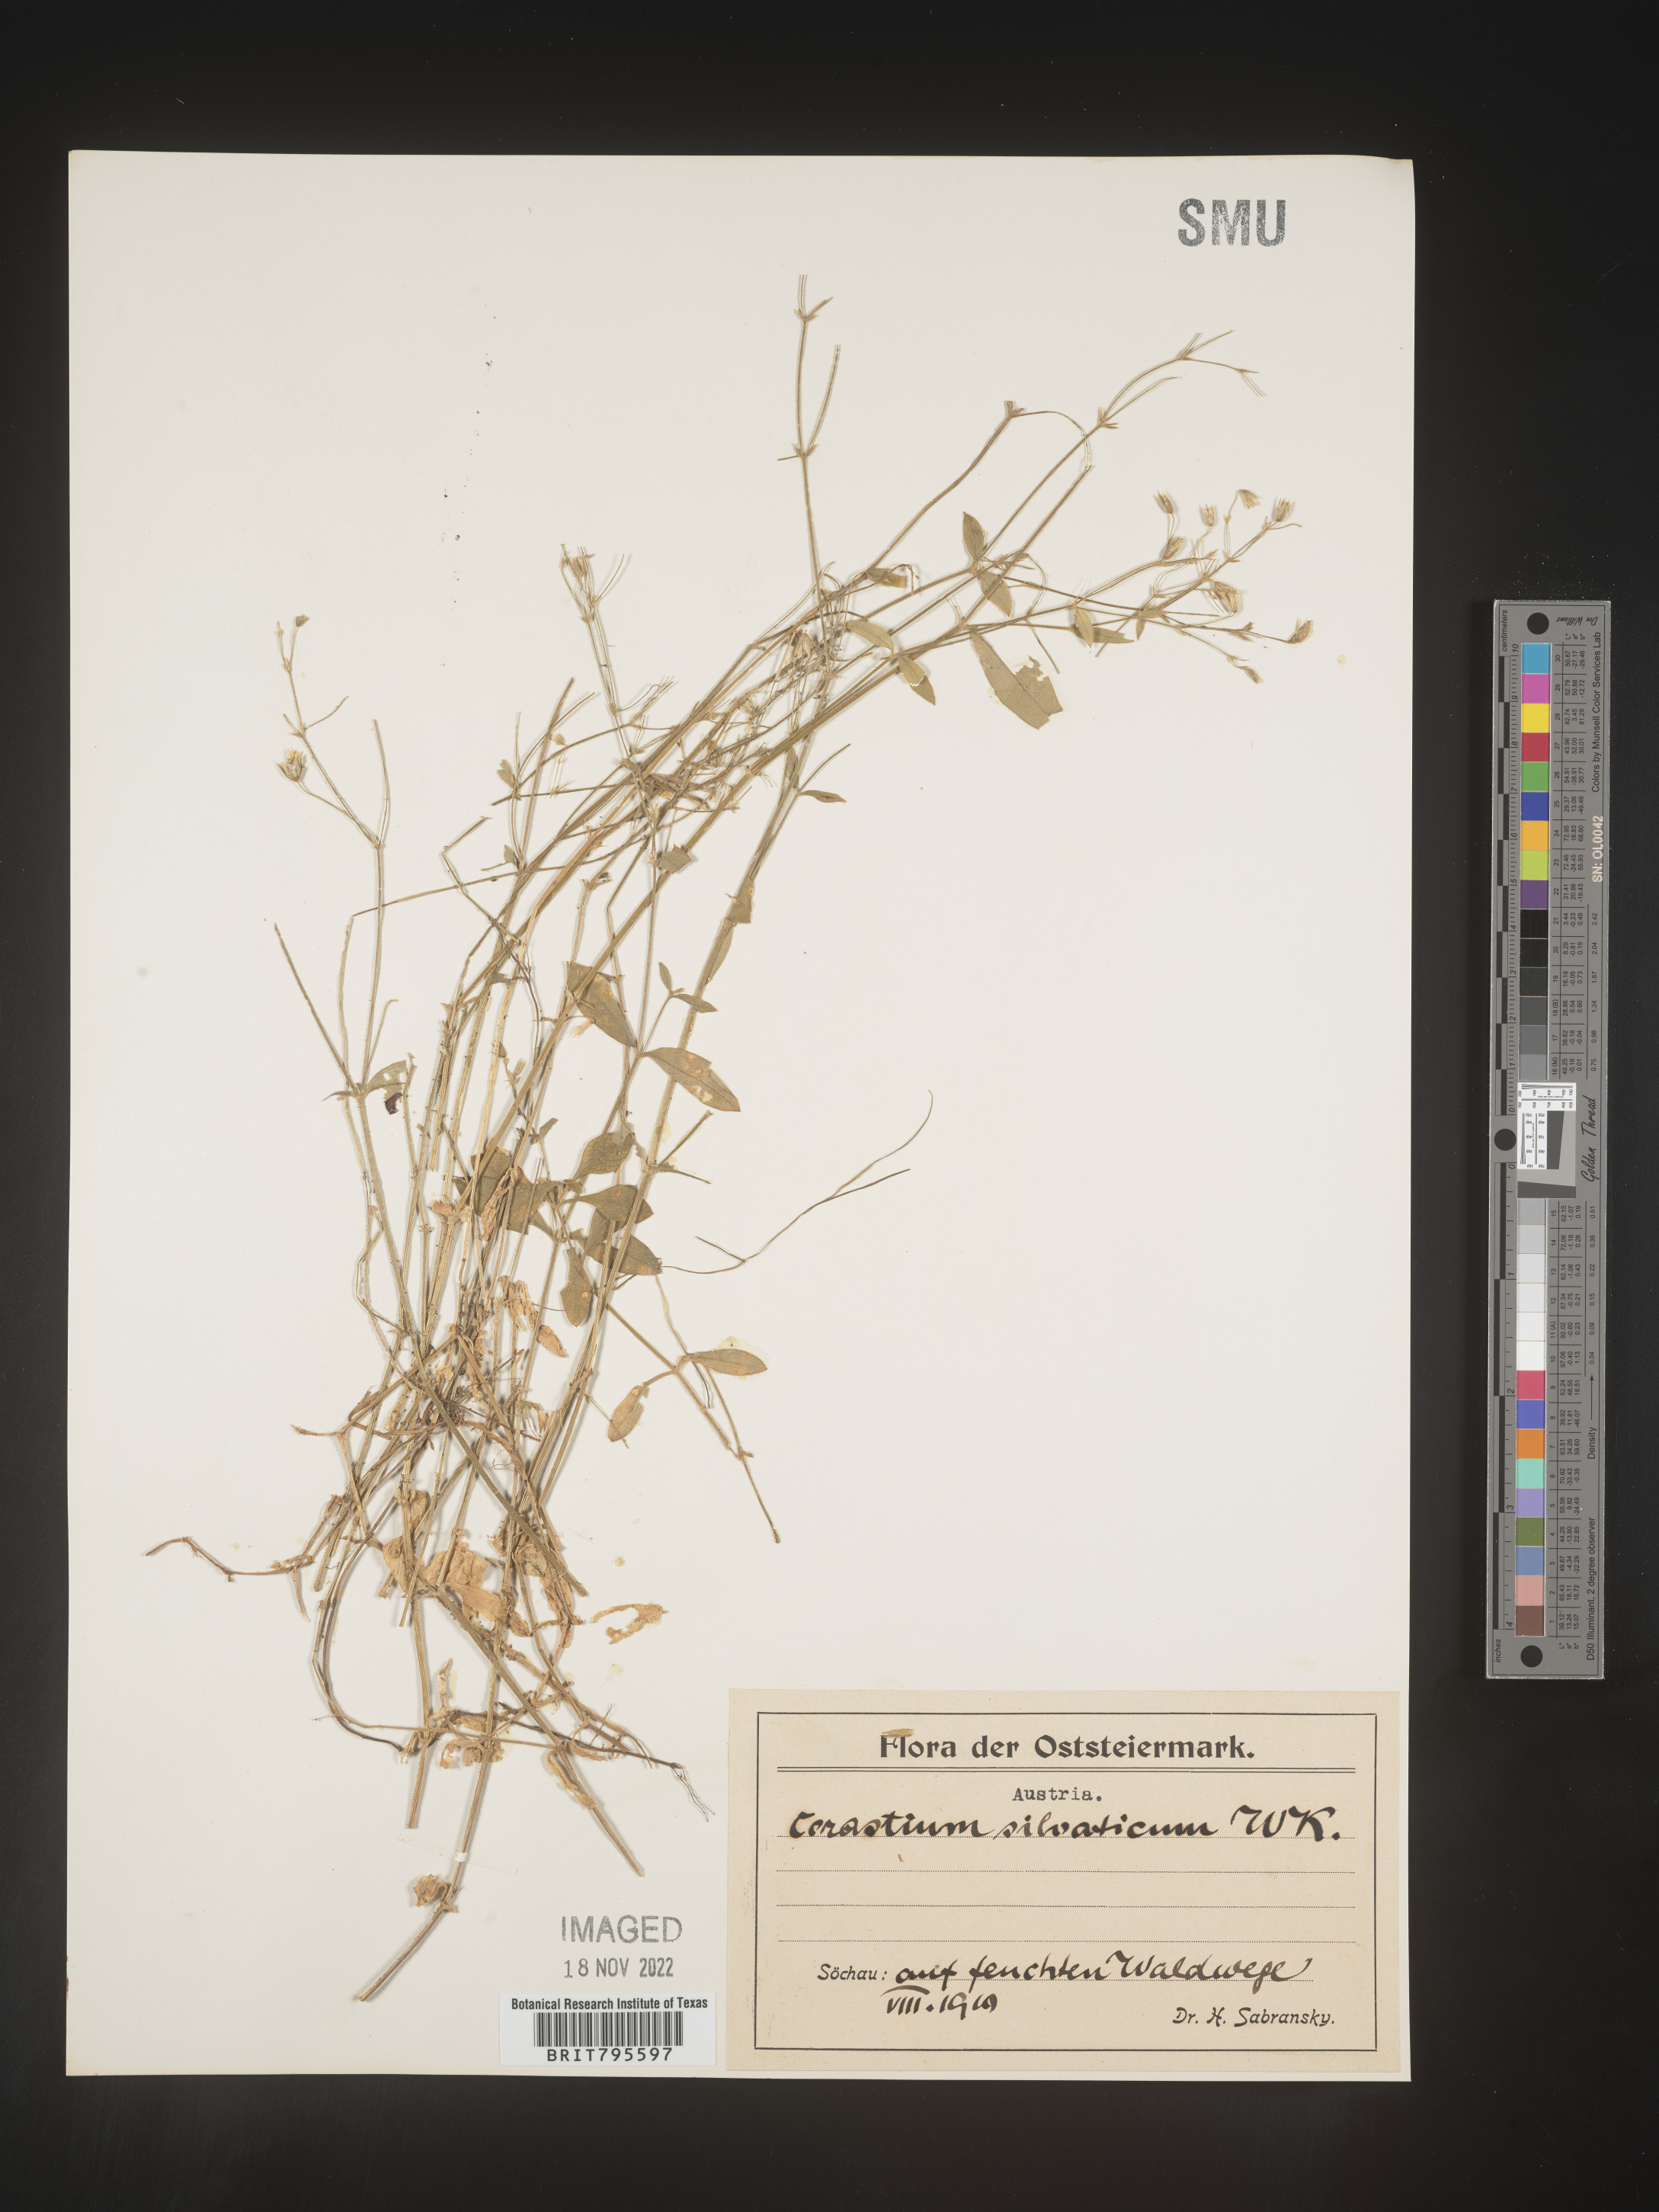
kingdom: Plantae
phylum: Tracheophyta
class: Magnoliopsida
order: Caryophyllales
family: Caryophyllaceae
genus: Cerastium
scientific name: Cerastium
